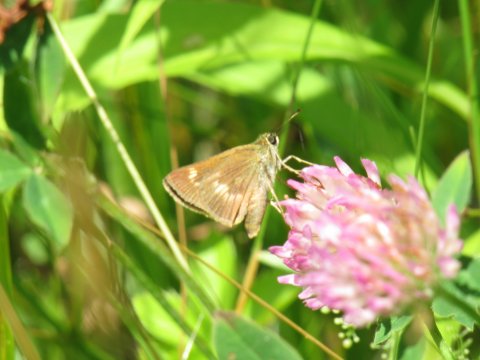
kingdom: Animalia
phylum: Arthropoda
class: Insecta
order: Lepidoptera
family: Hesperiidae
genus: Polites
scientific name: Polites egeremet
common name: Northern Broken-Dash
